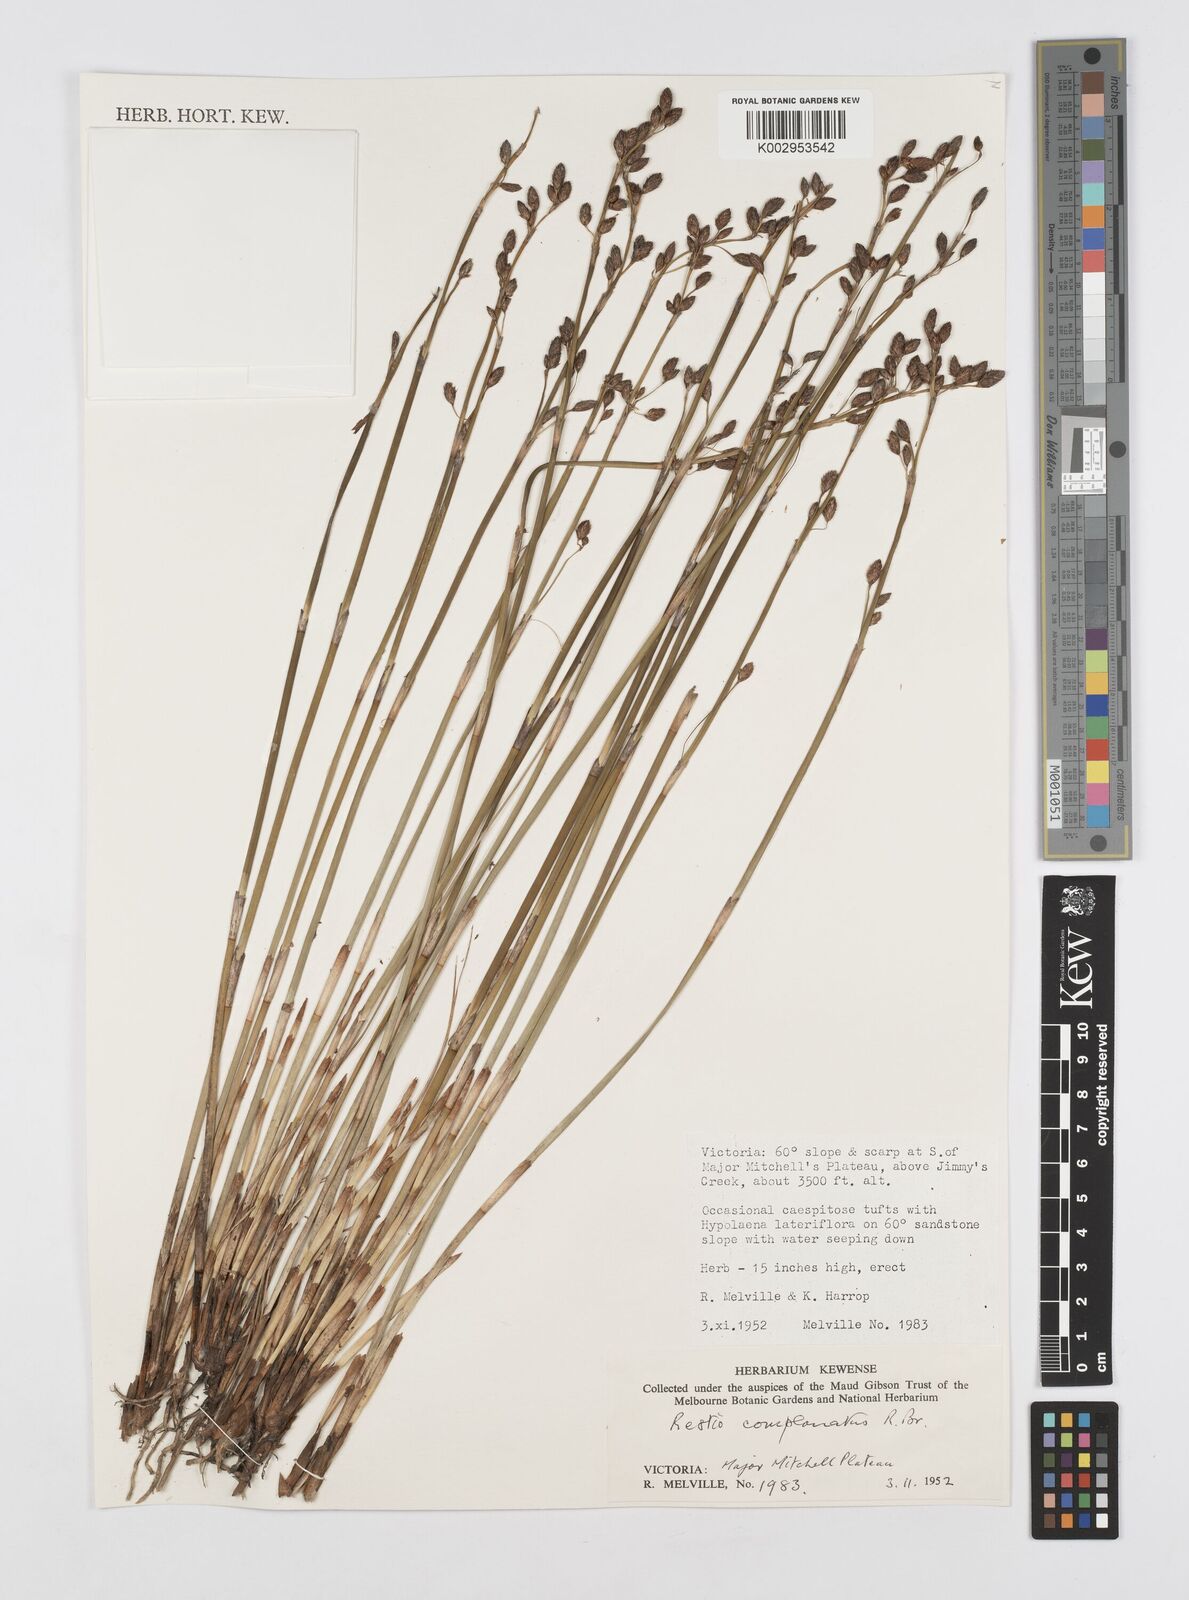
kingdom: Plantae
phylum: Tracheophyta
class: Liliopsida
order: Poales
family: Restionaceae
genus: Eurychorda
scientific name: Eurychorda complanata
